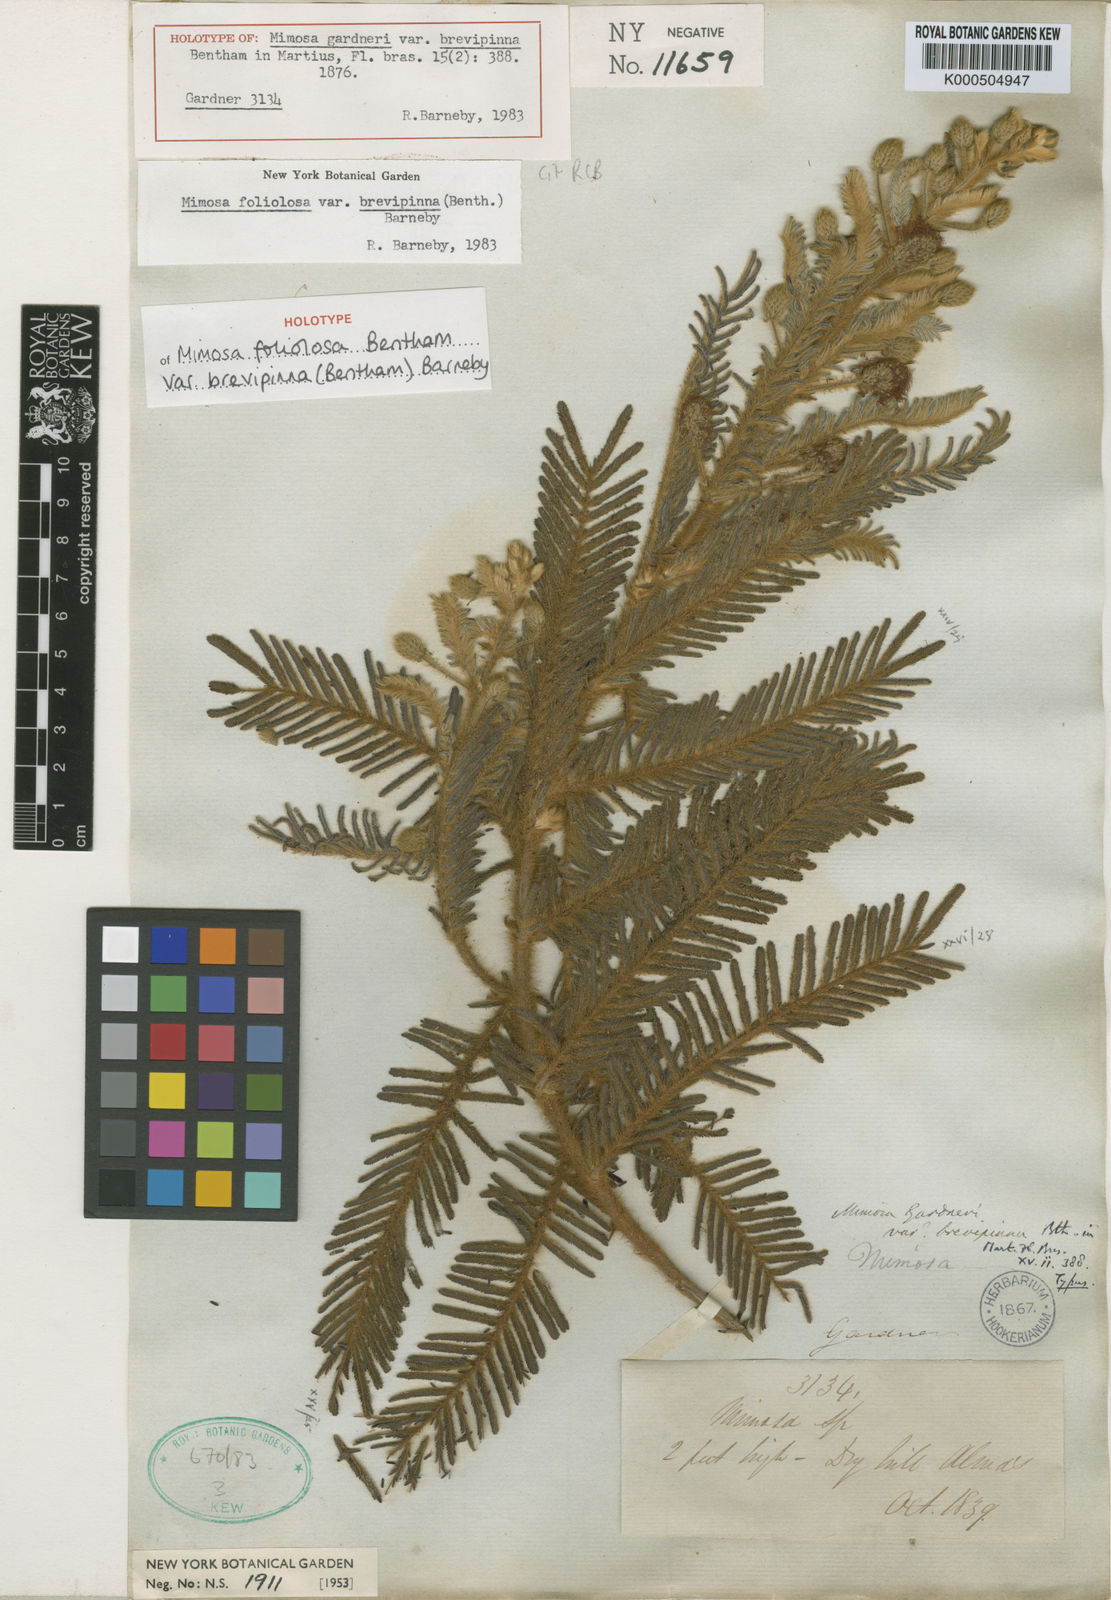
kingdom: Plantae
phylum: Tracheophyta
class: Magnoliopsida
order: Fabales
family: Fabaceae
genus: Mimosa
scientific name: Mimosa foliolosa
